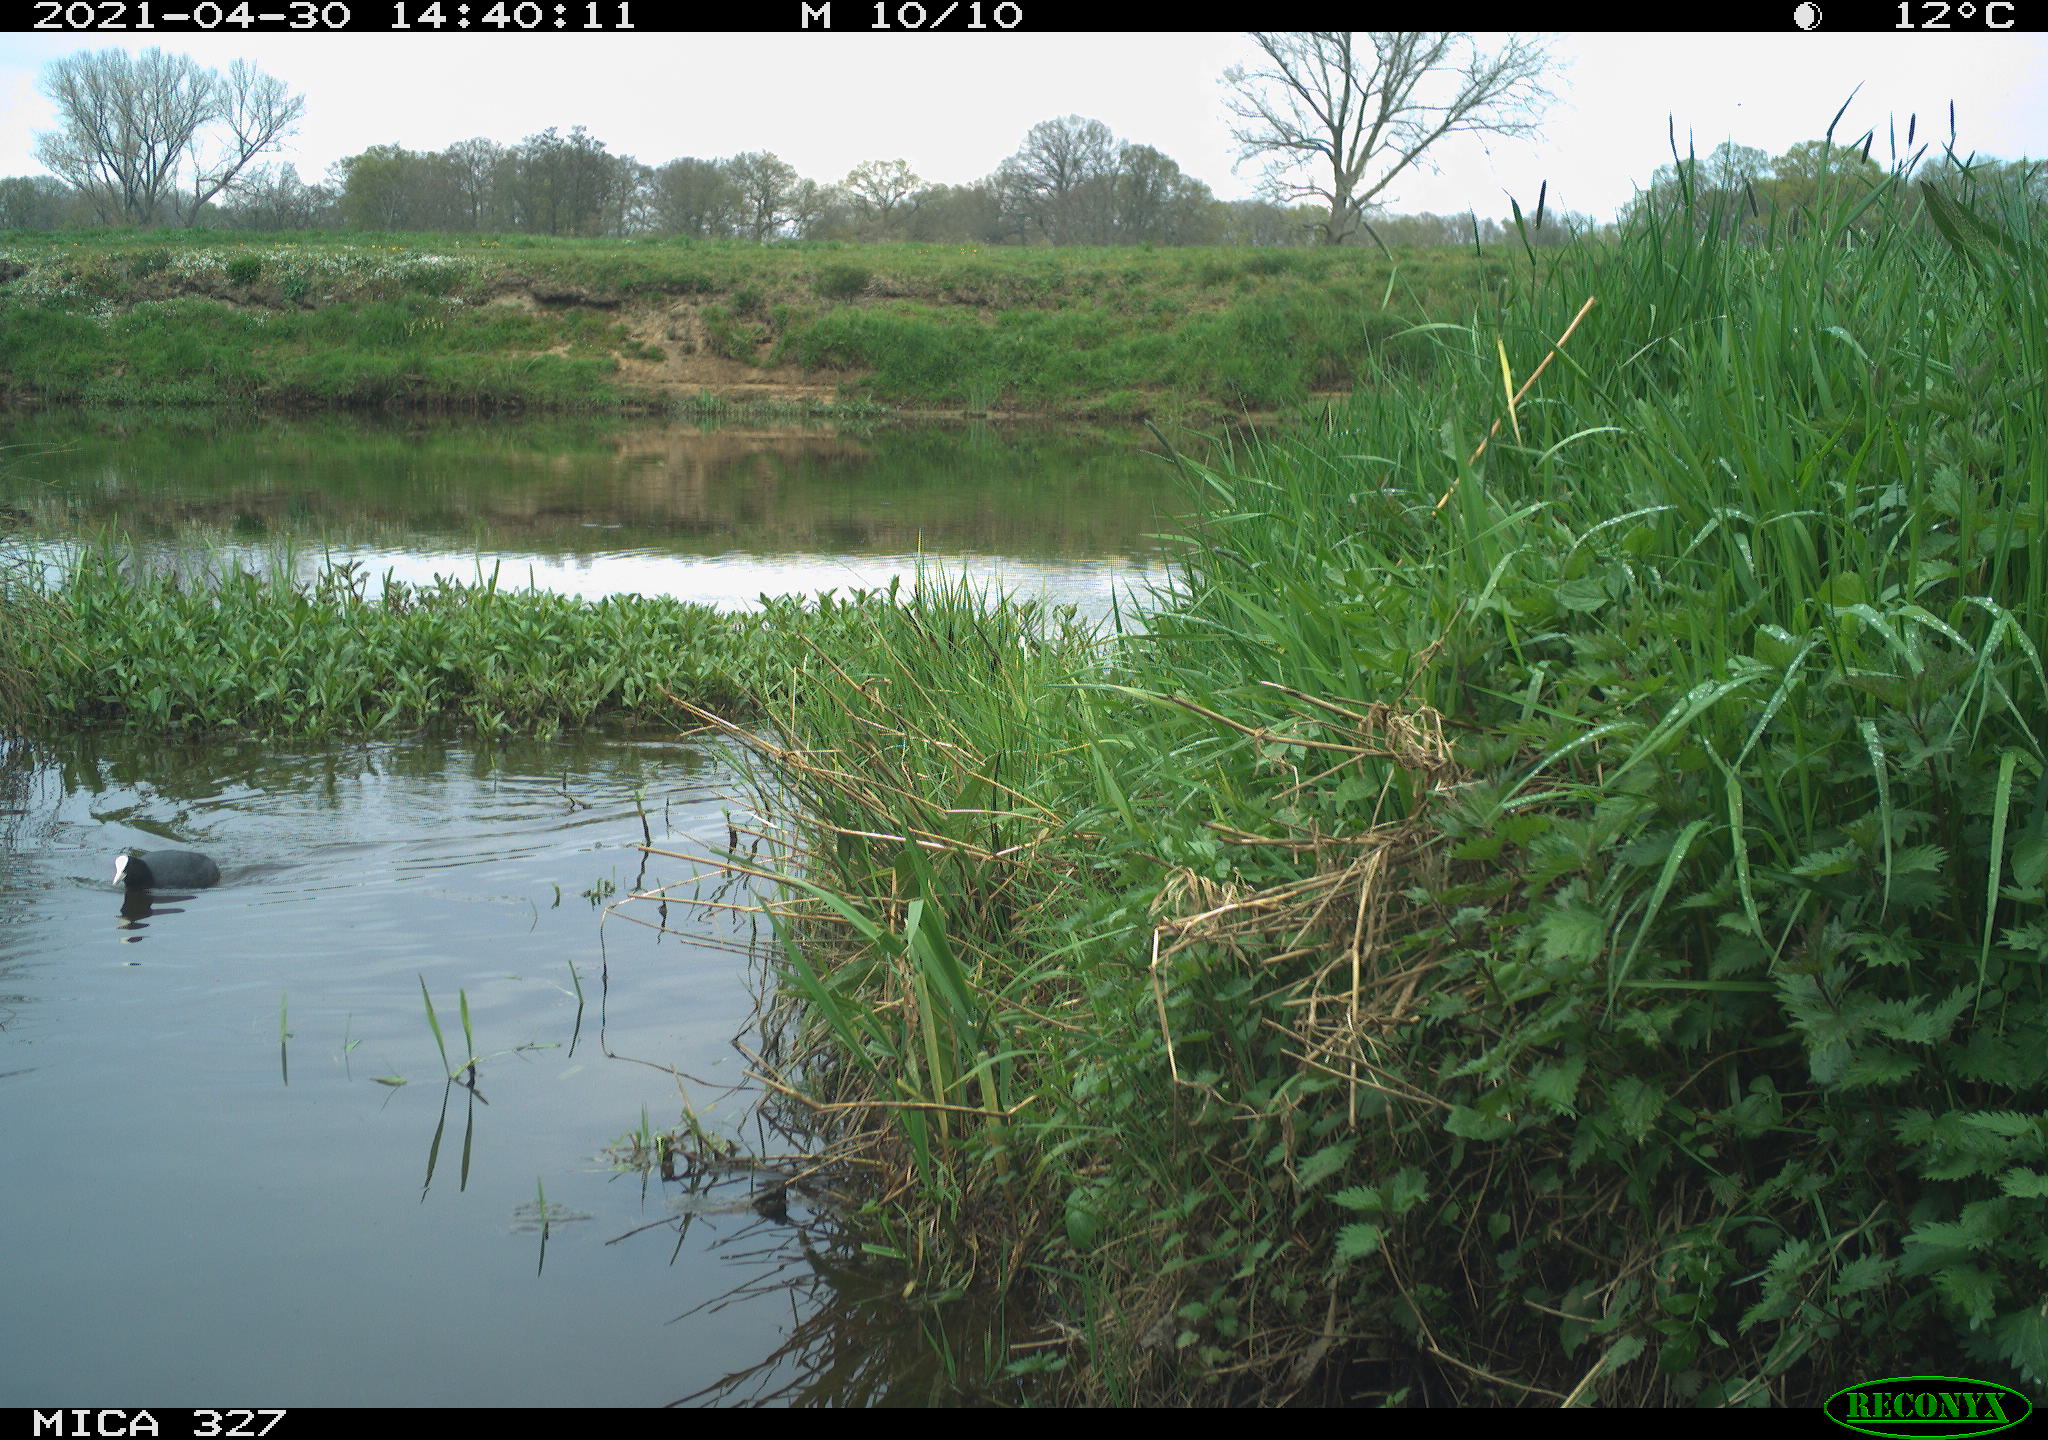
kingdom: Animalia
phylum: Chordata
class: Aves
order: Anseriformes
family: Anatidae
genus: Anas
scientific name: Anas platyrhynchos
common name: Mallard
